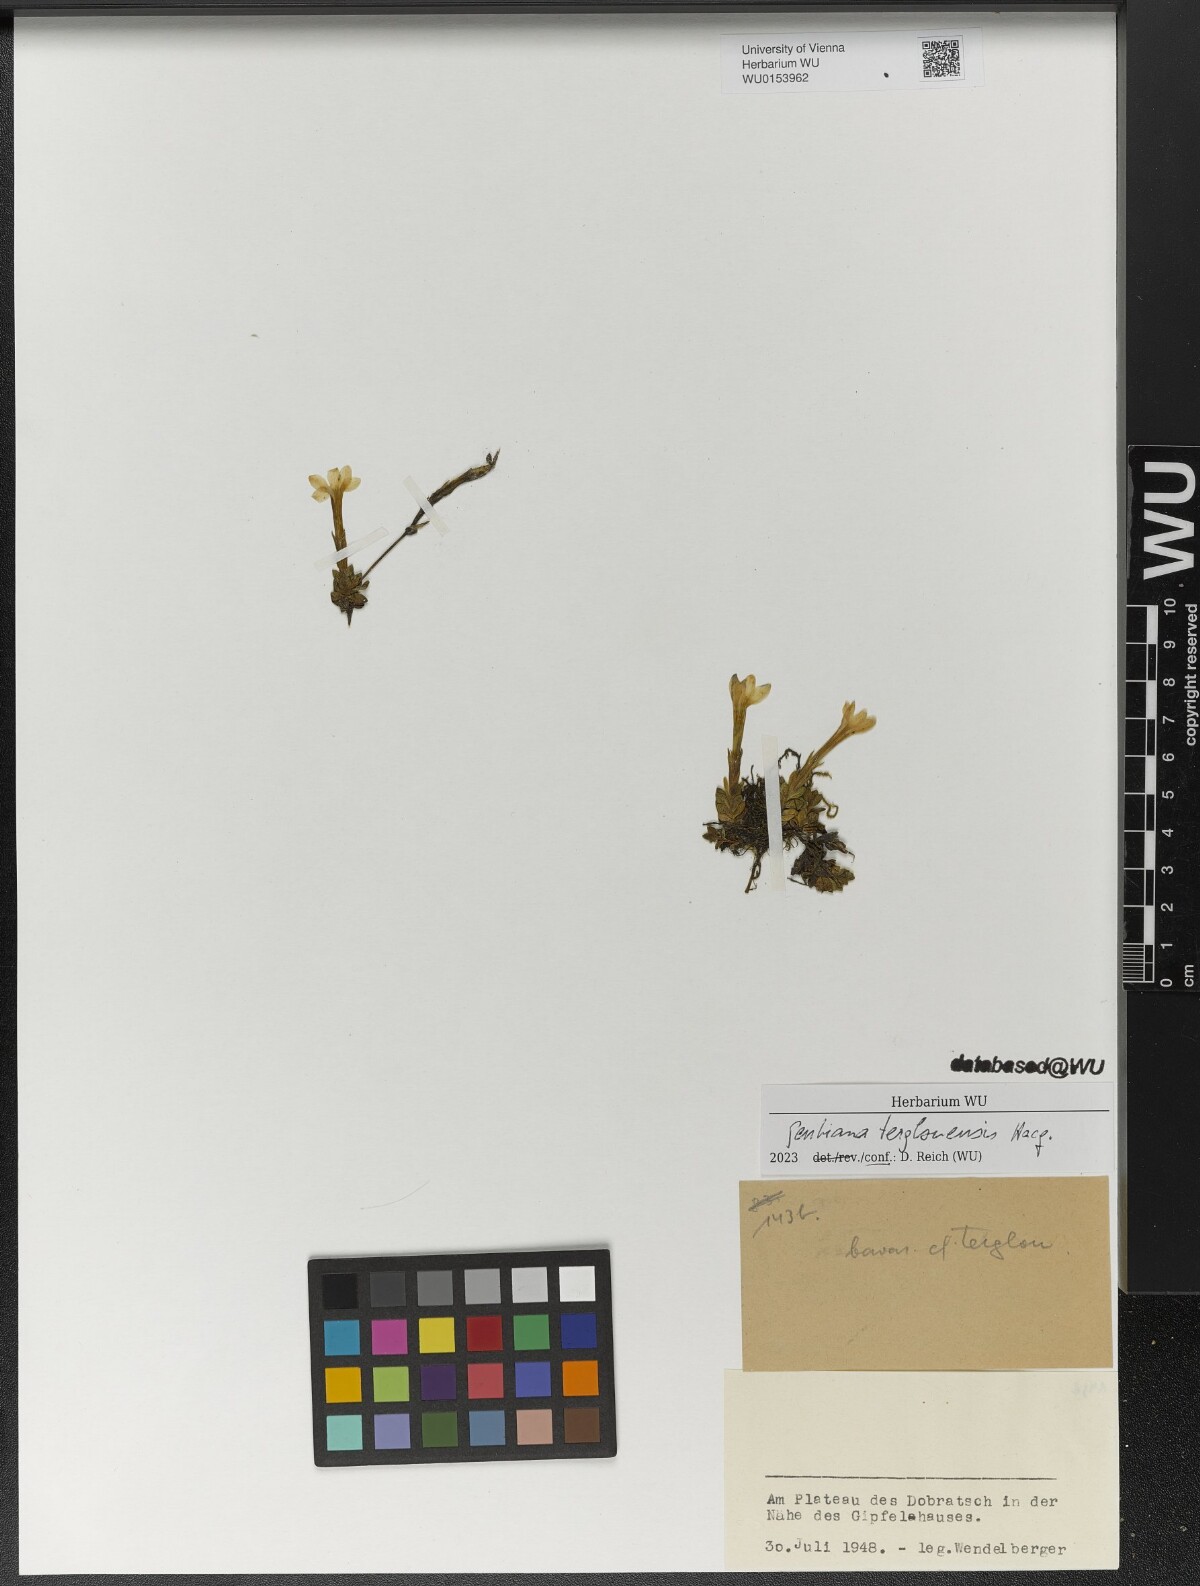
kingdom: Plantae
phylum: Tracheophyta
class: Magnoliopsida
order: Gentianales
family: Gentianaceae
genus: Gentiana
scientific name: Gentiana terglouensis
